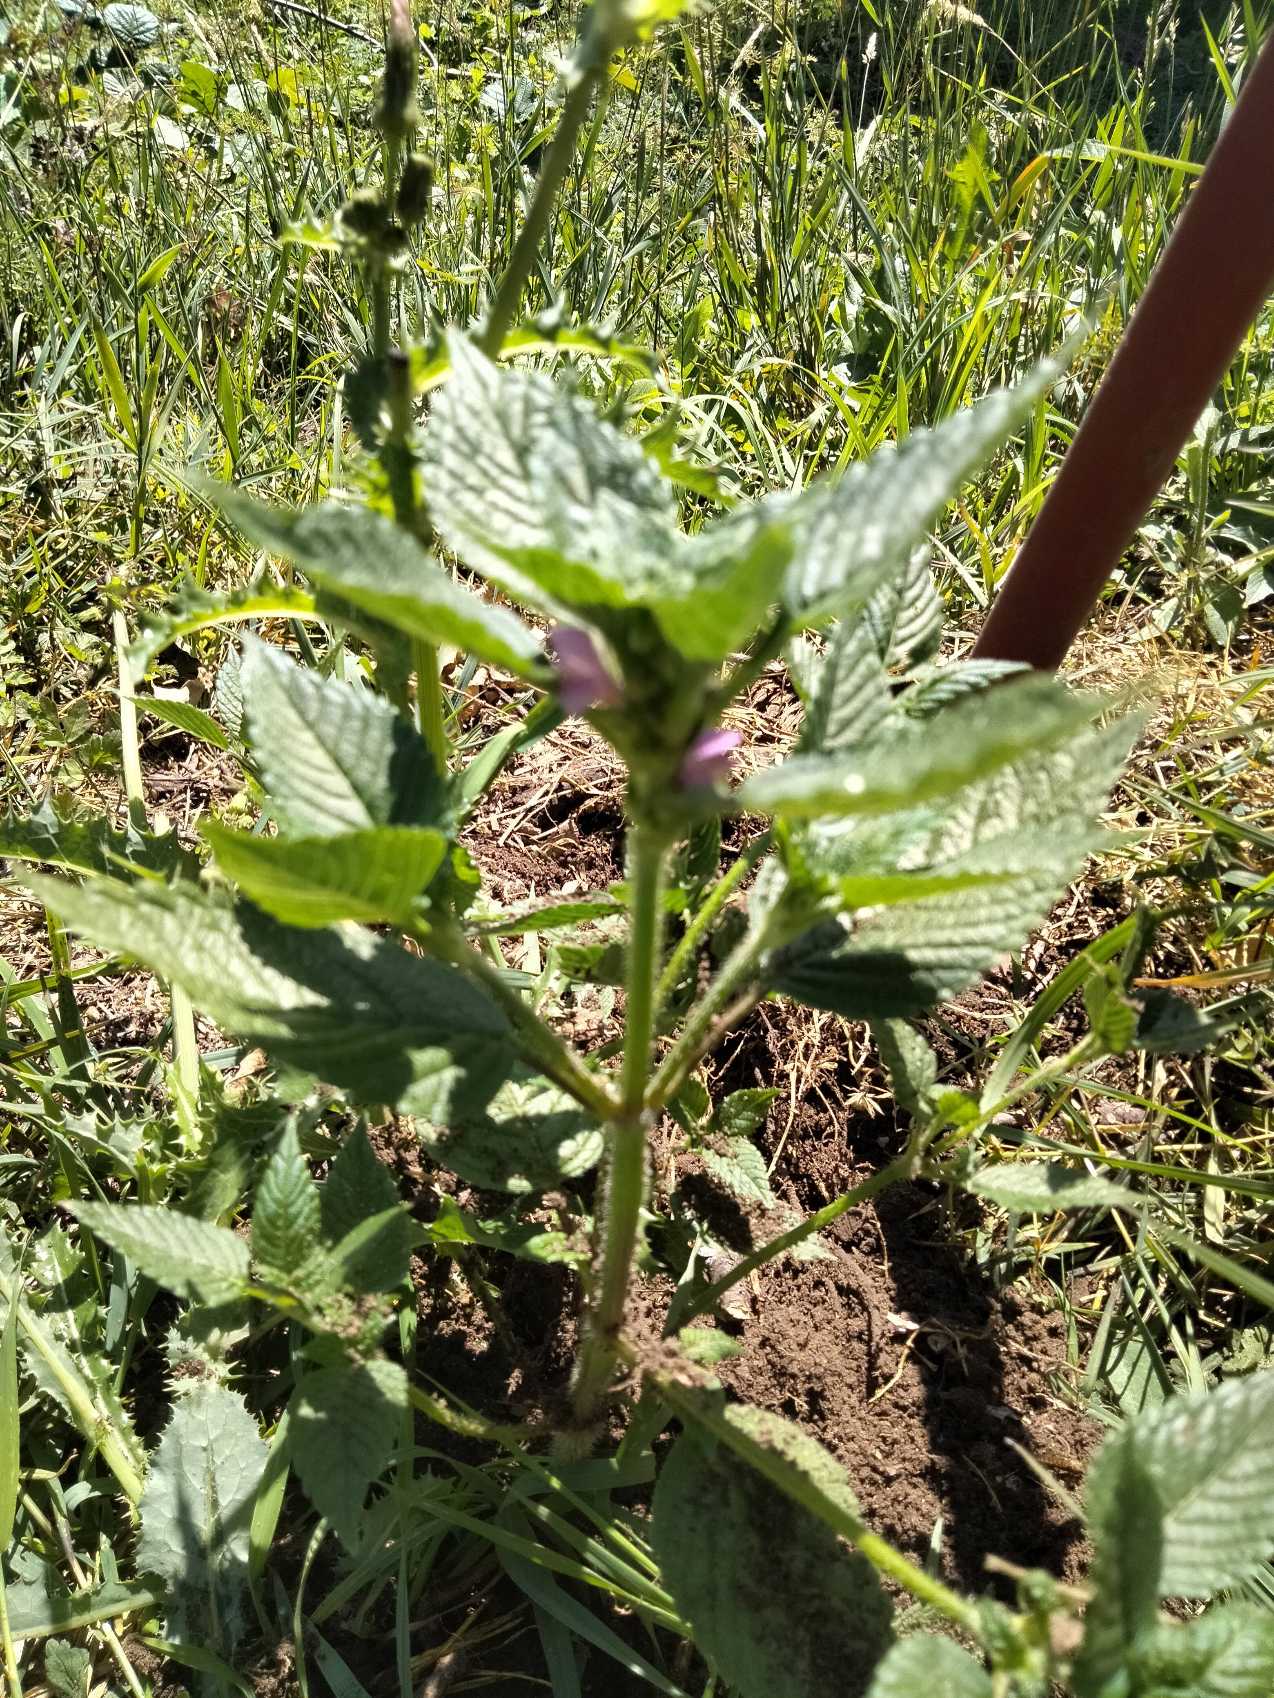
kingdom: Plantae
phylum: Tracheophyta
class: Magnoliopsida
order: Lamiales
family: Lamiaceae
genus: Galeopsis
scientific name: Galeopsis
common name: Hanekroslægten
